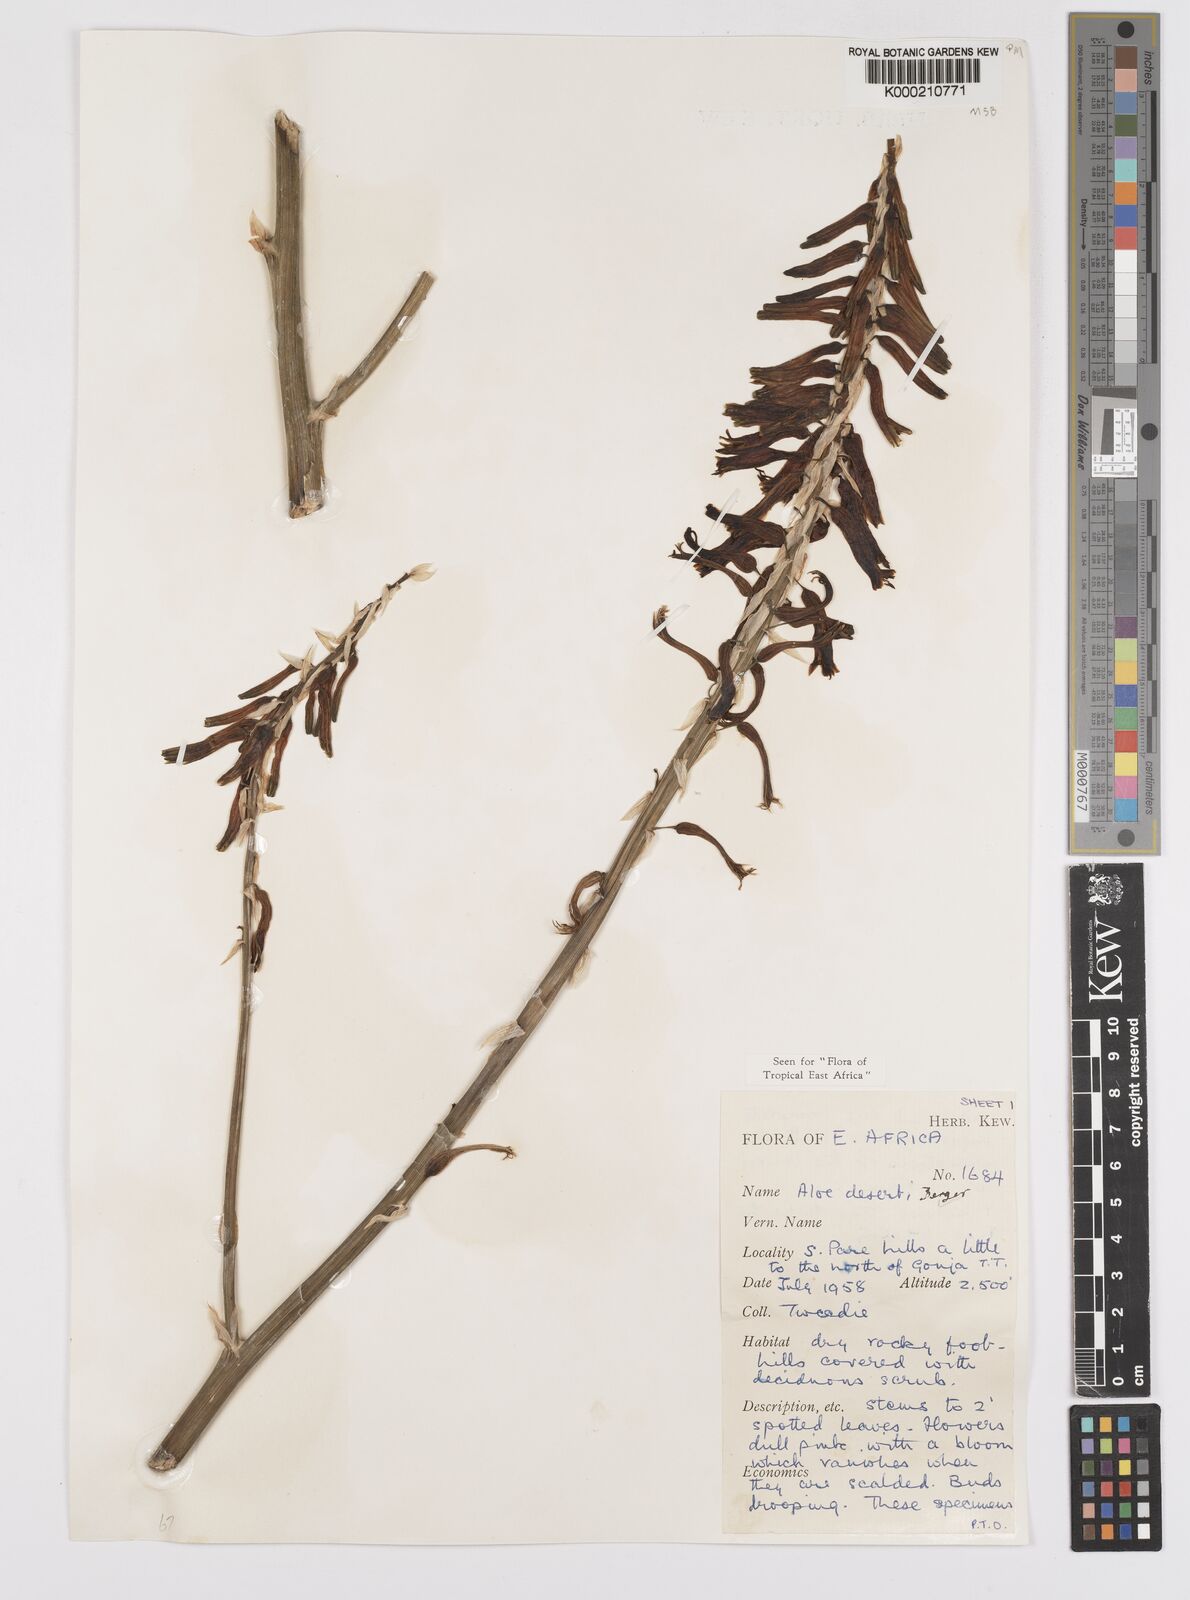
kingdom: Plantae
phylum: Tracheophyta
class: Liliopsida
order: Asparagales
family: Asphodelaceae
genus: Aloe
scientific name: Aloe deserti
